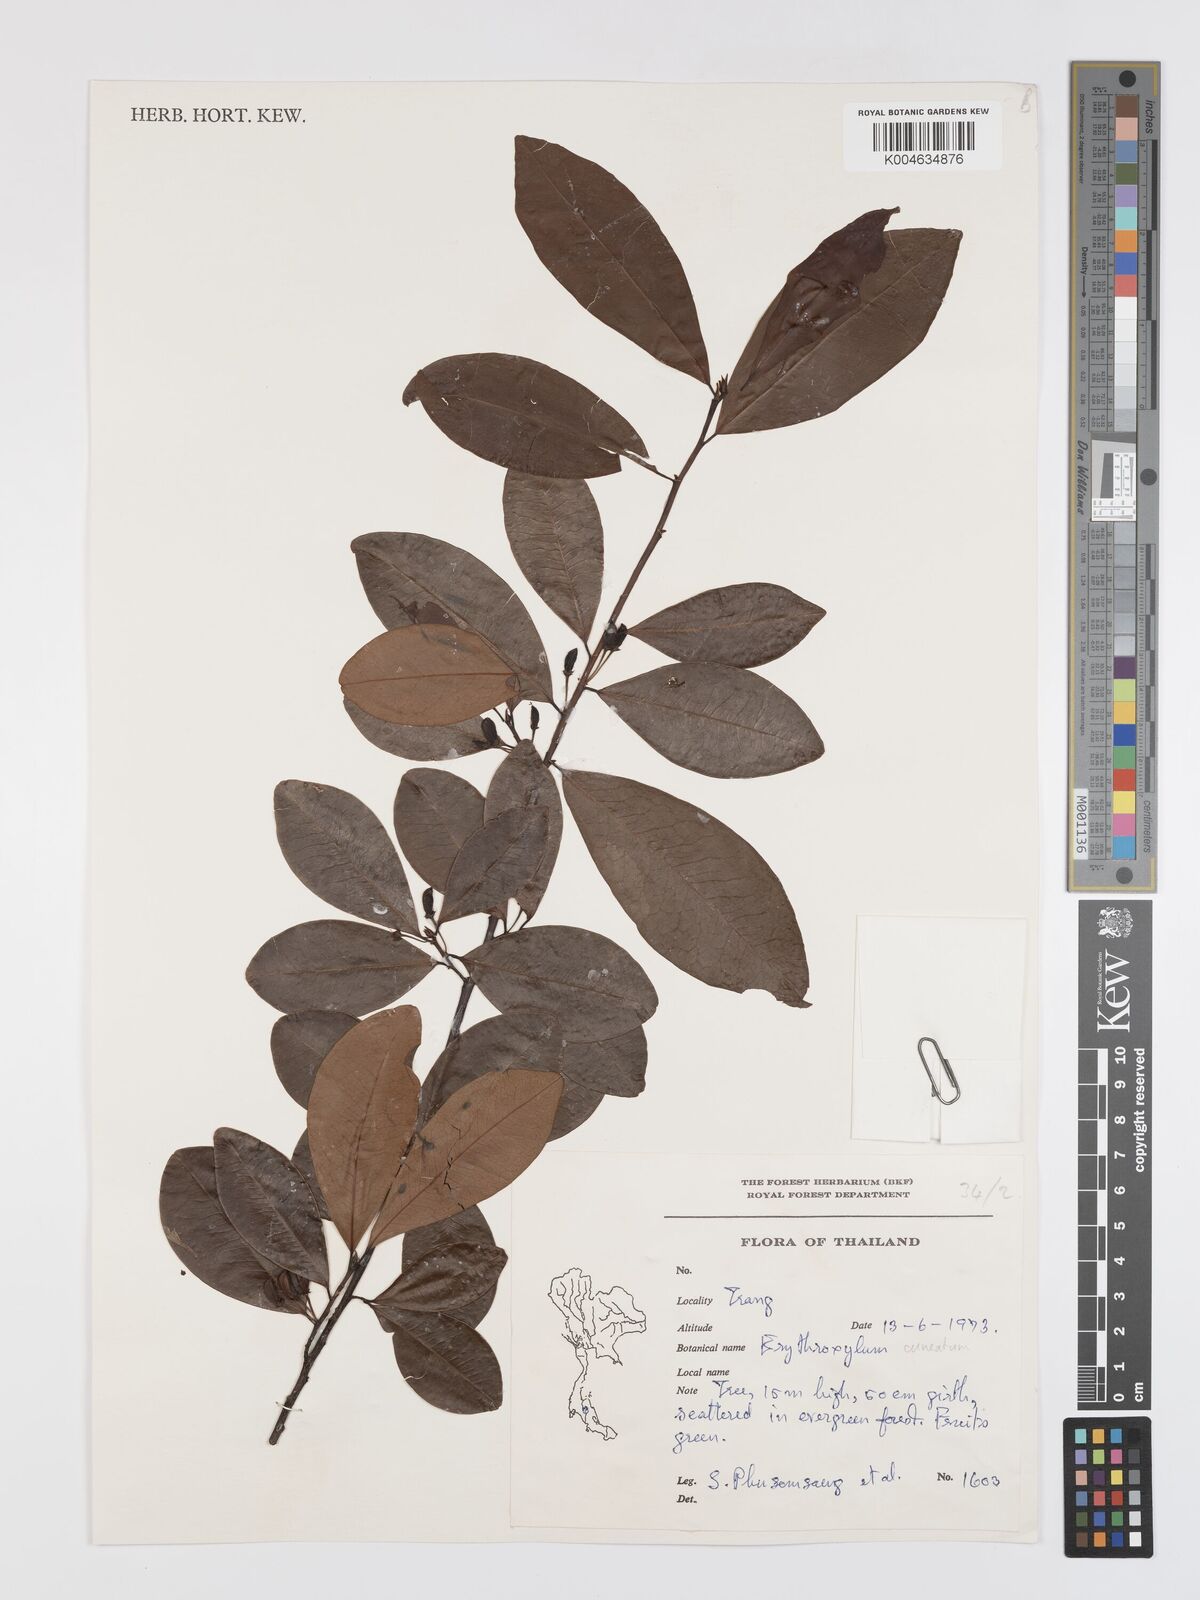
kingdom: Plantae
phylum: Tracheophyta
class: Magnoliopsida
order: Malpighiales
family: Erythroxylaceae
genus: Erythroxylum
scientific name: Erythroxylum
